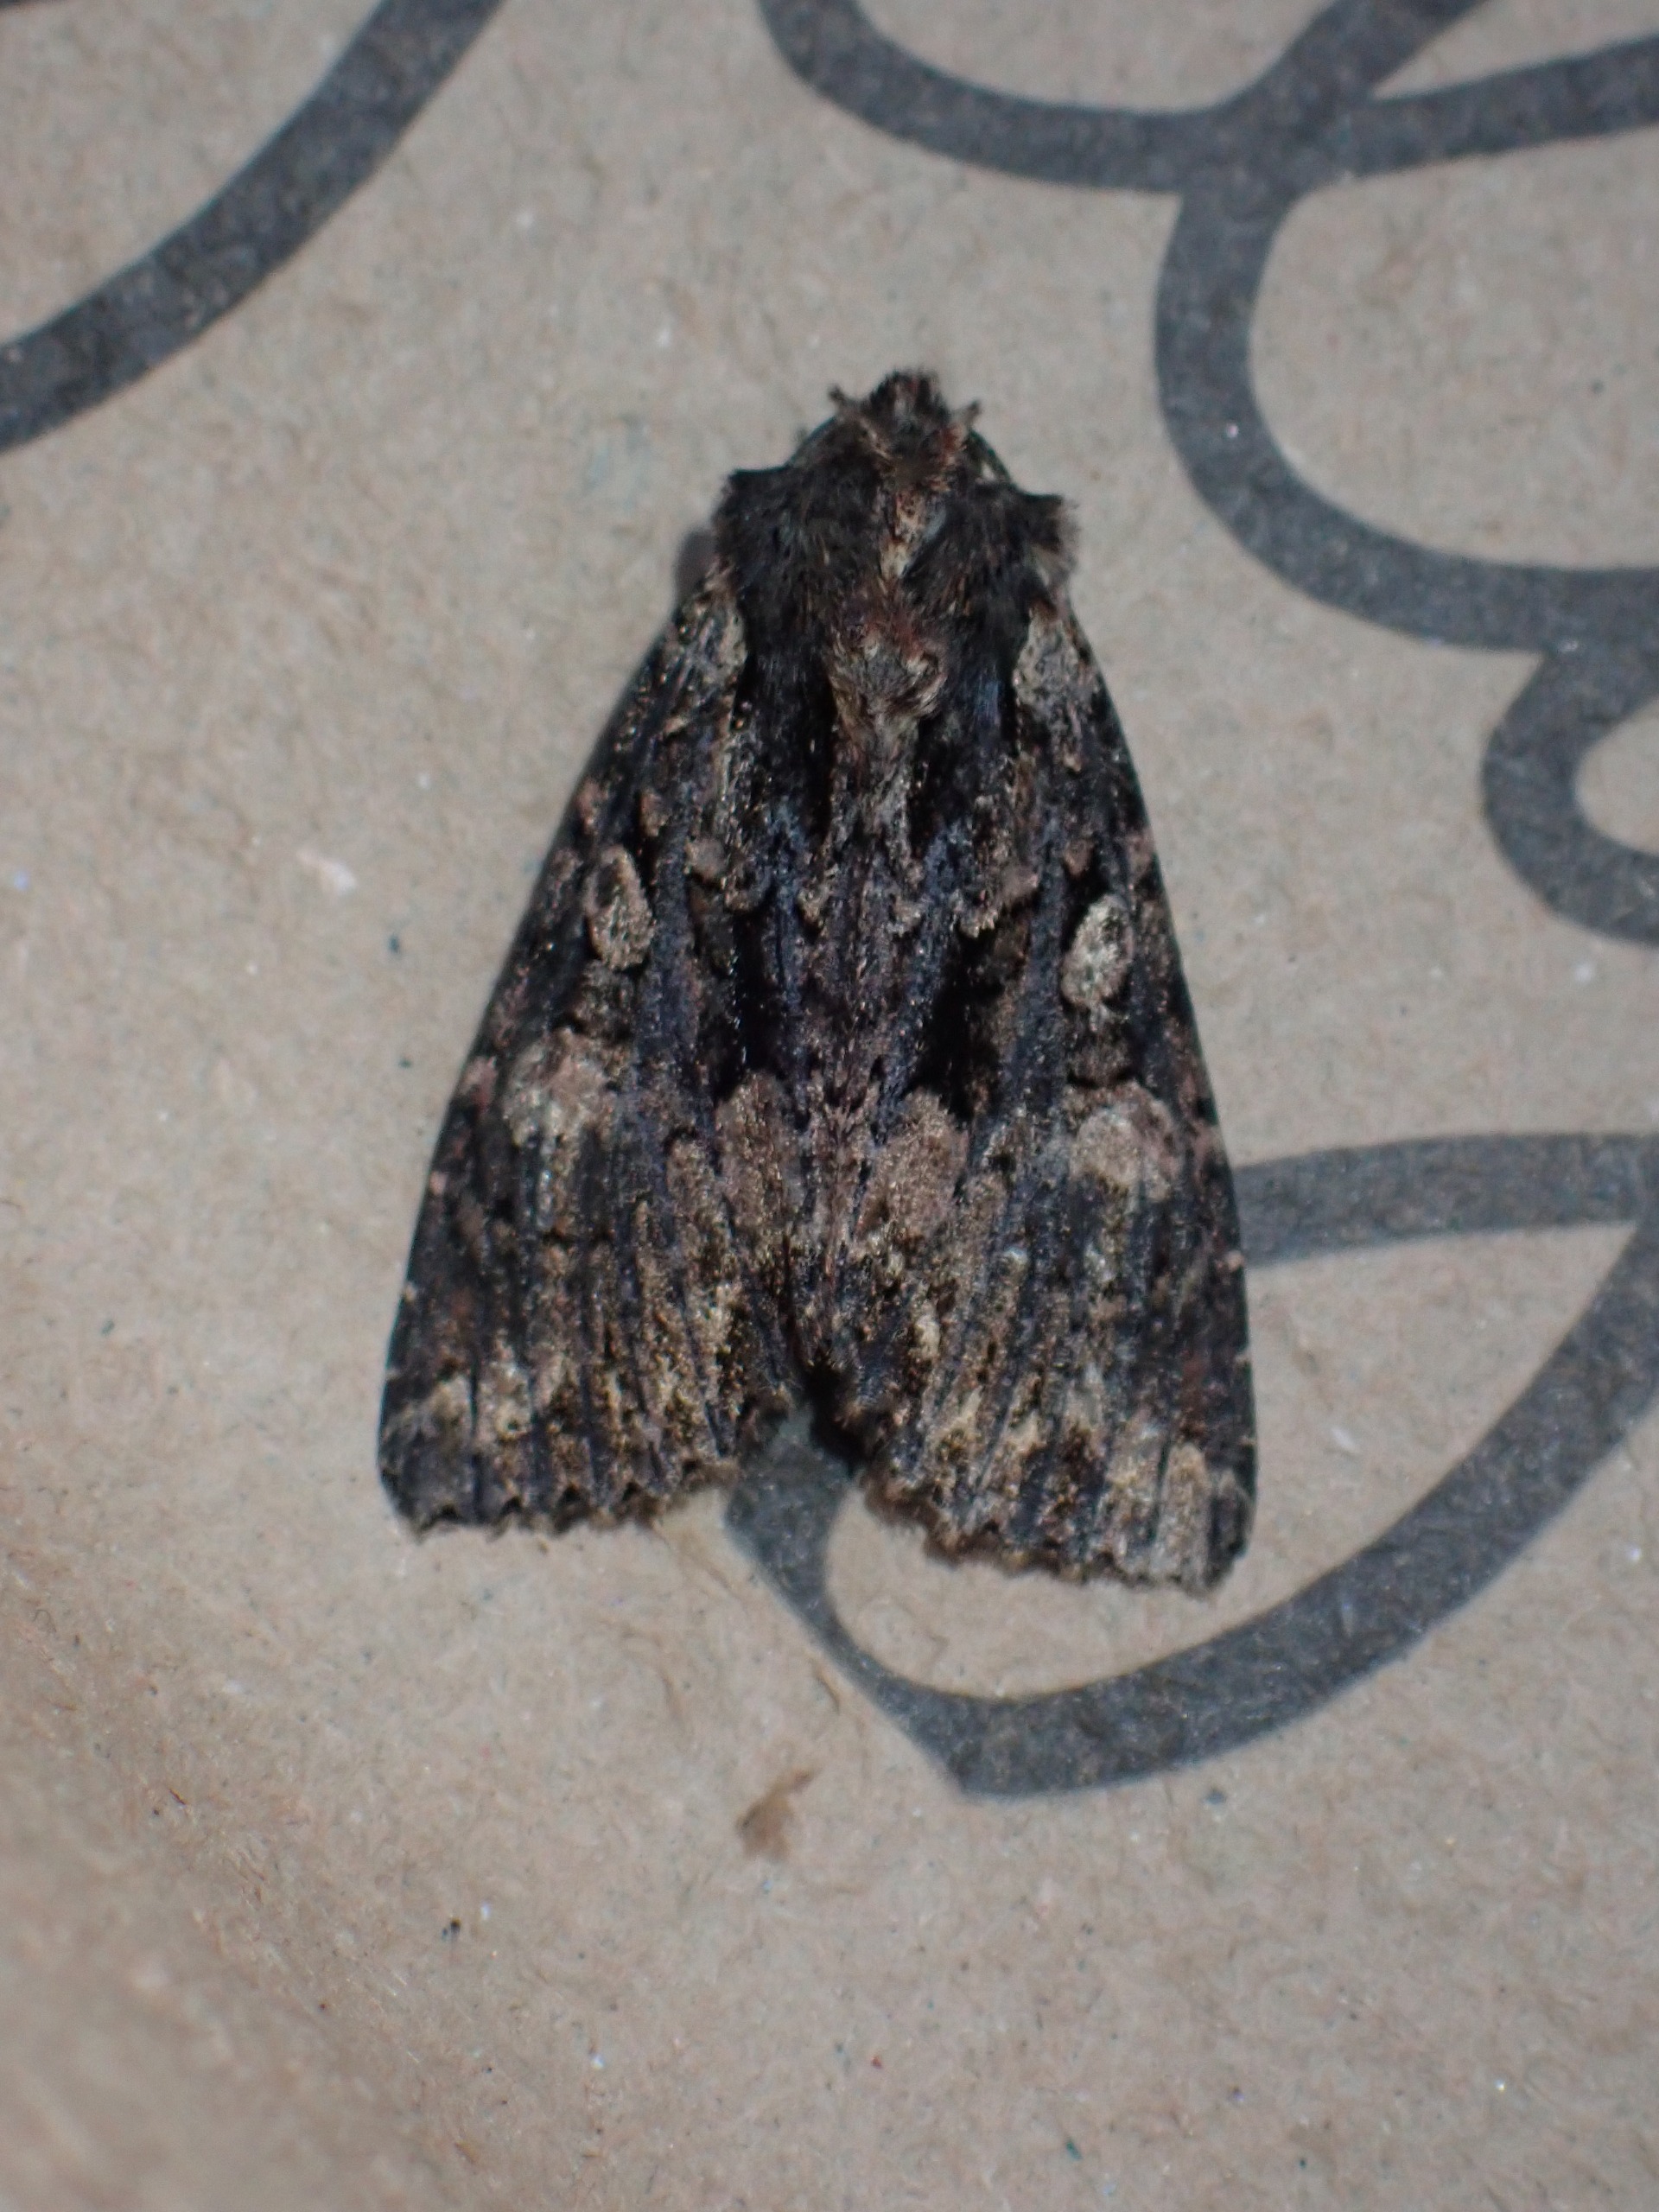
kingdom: Animalia
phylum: Arthropoda
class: Insecta
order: Lepidoptera
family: Noctuidae
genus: Mniotype
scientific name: Mniotype satura
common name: August-mosugle
